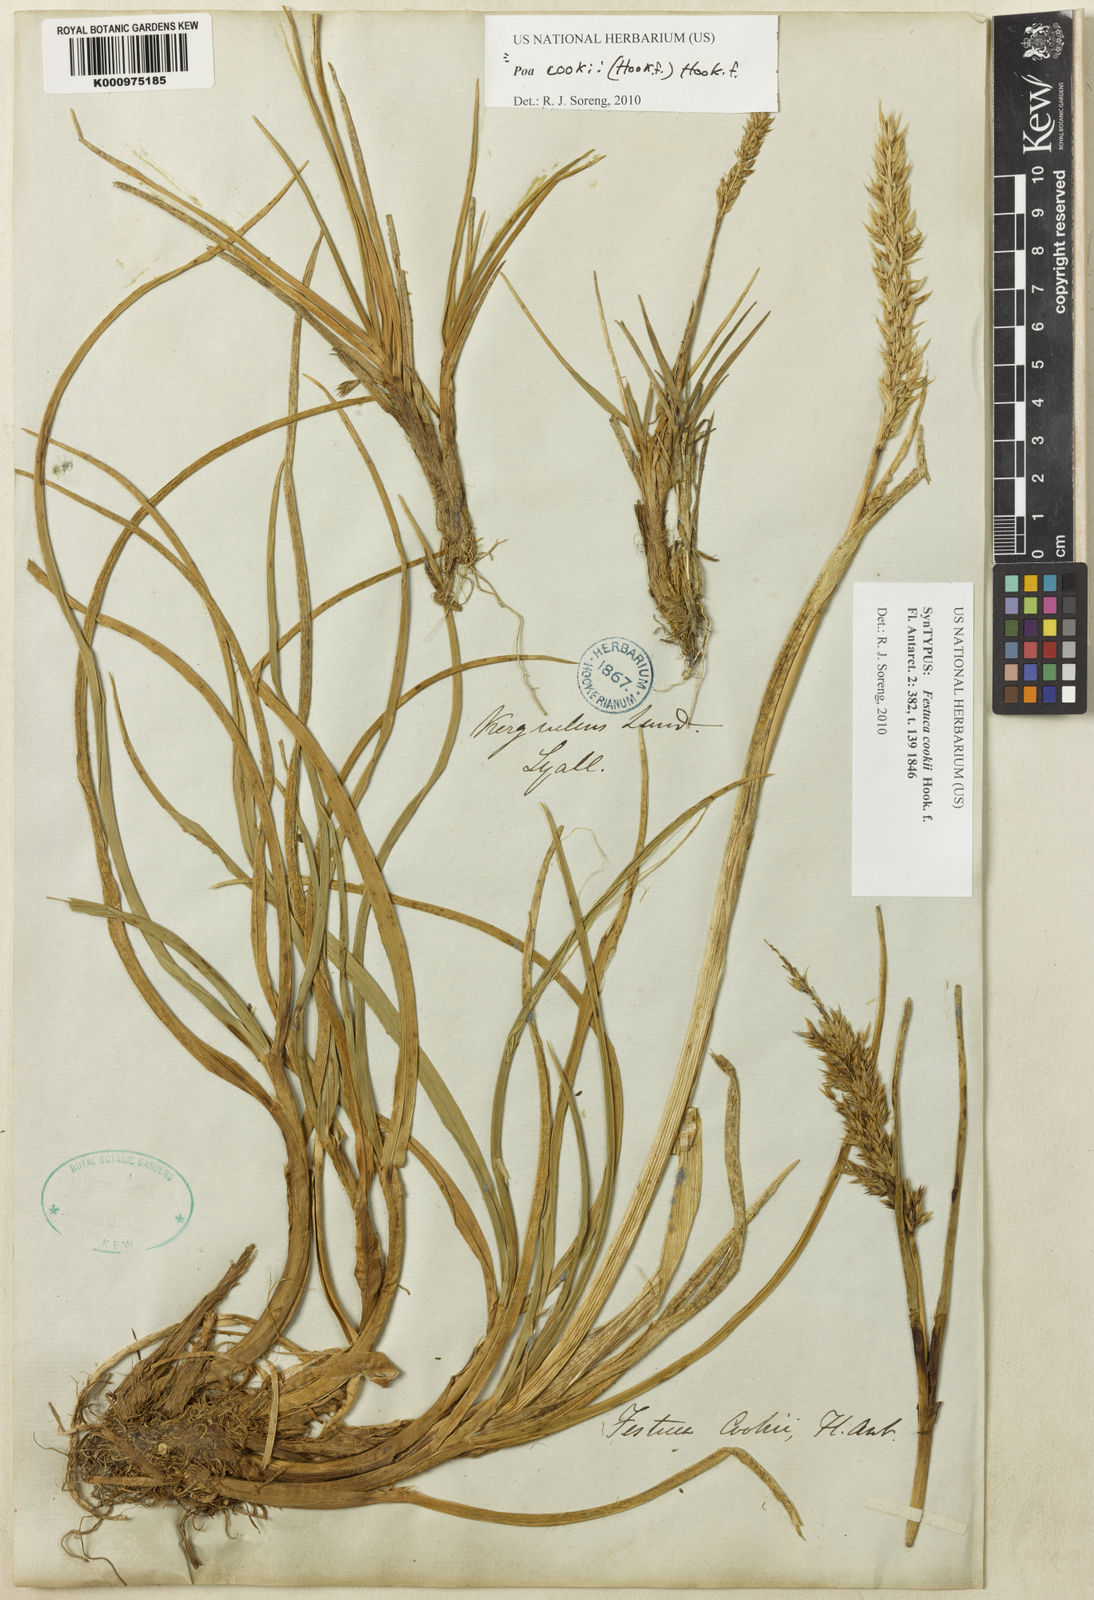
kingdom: Plantae
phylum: Tracheophyta
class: Liliopsida
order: Poales
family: Poaceae
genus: Poa
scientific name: Poa cookii
